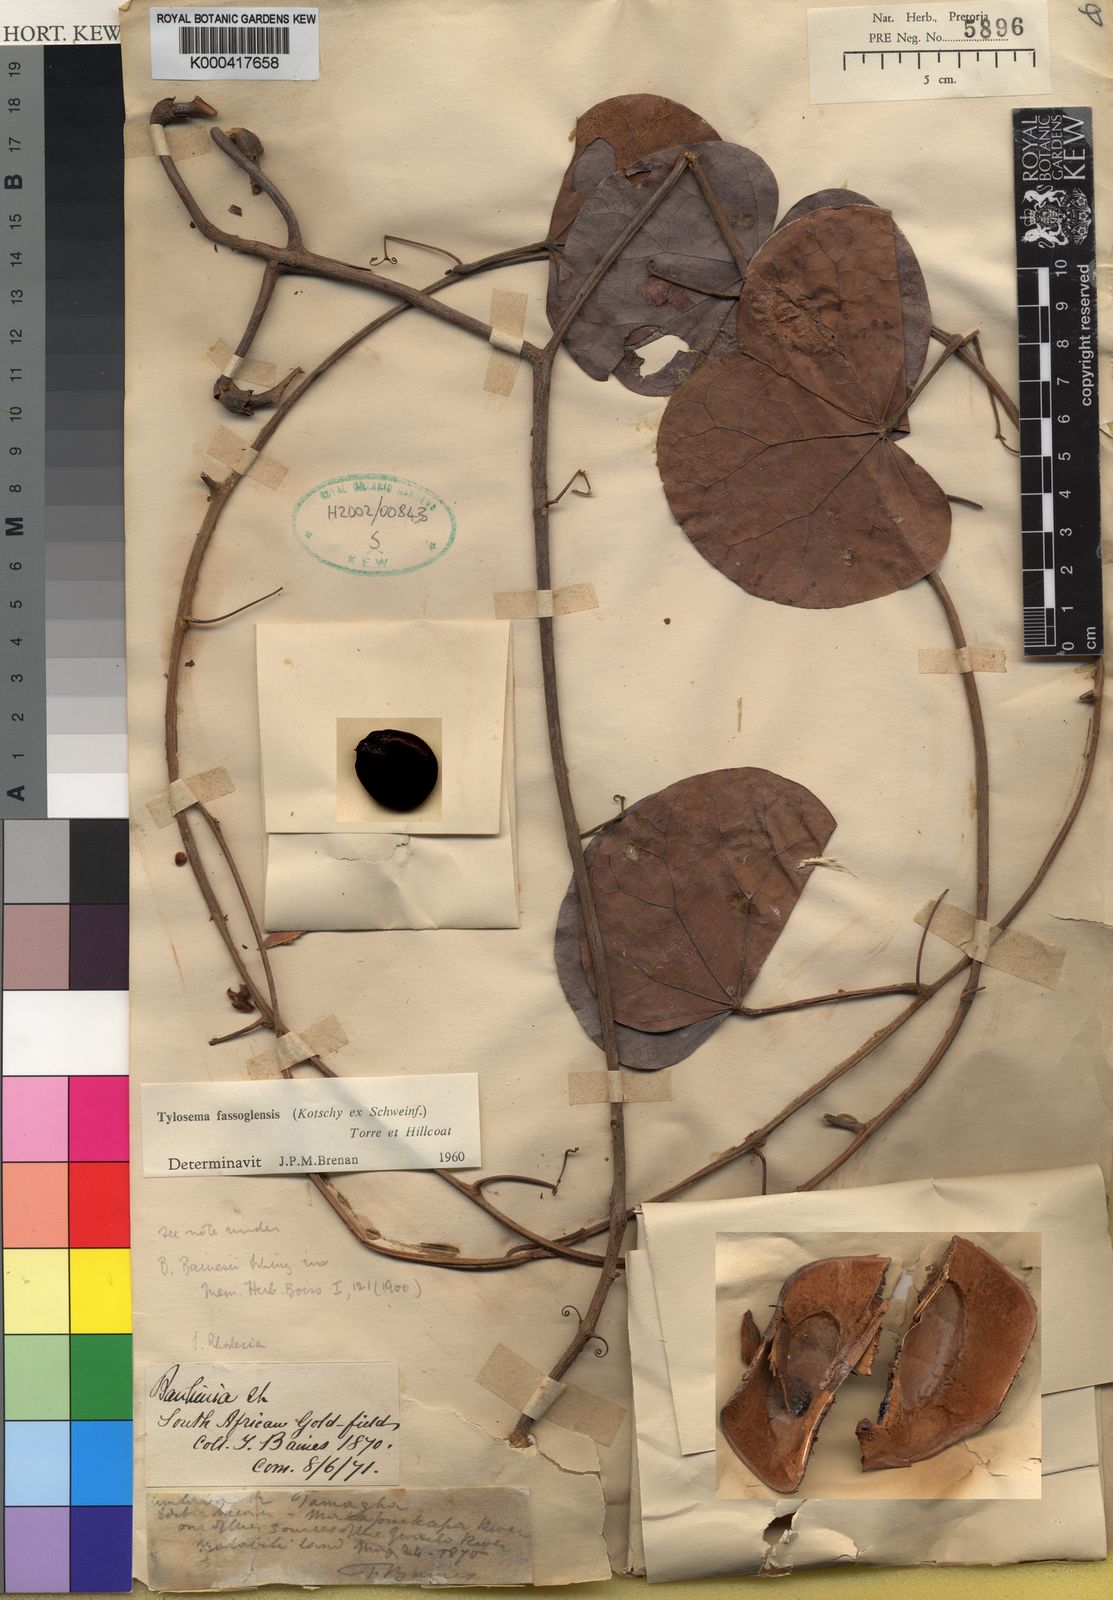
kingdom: Plantae
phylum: Tracheophyta
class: Magnoliopsida
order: Fabales
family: Fabaceae
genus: Tylosema
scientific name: Tylosema fassoglense
